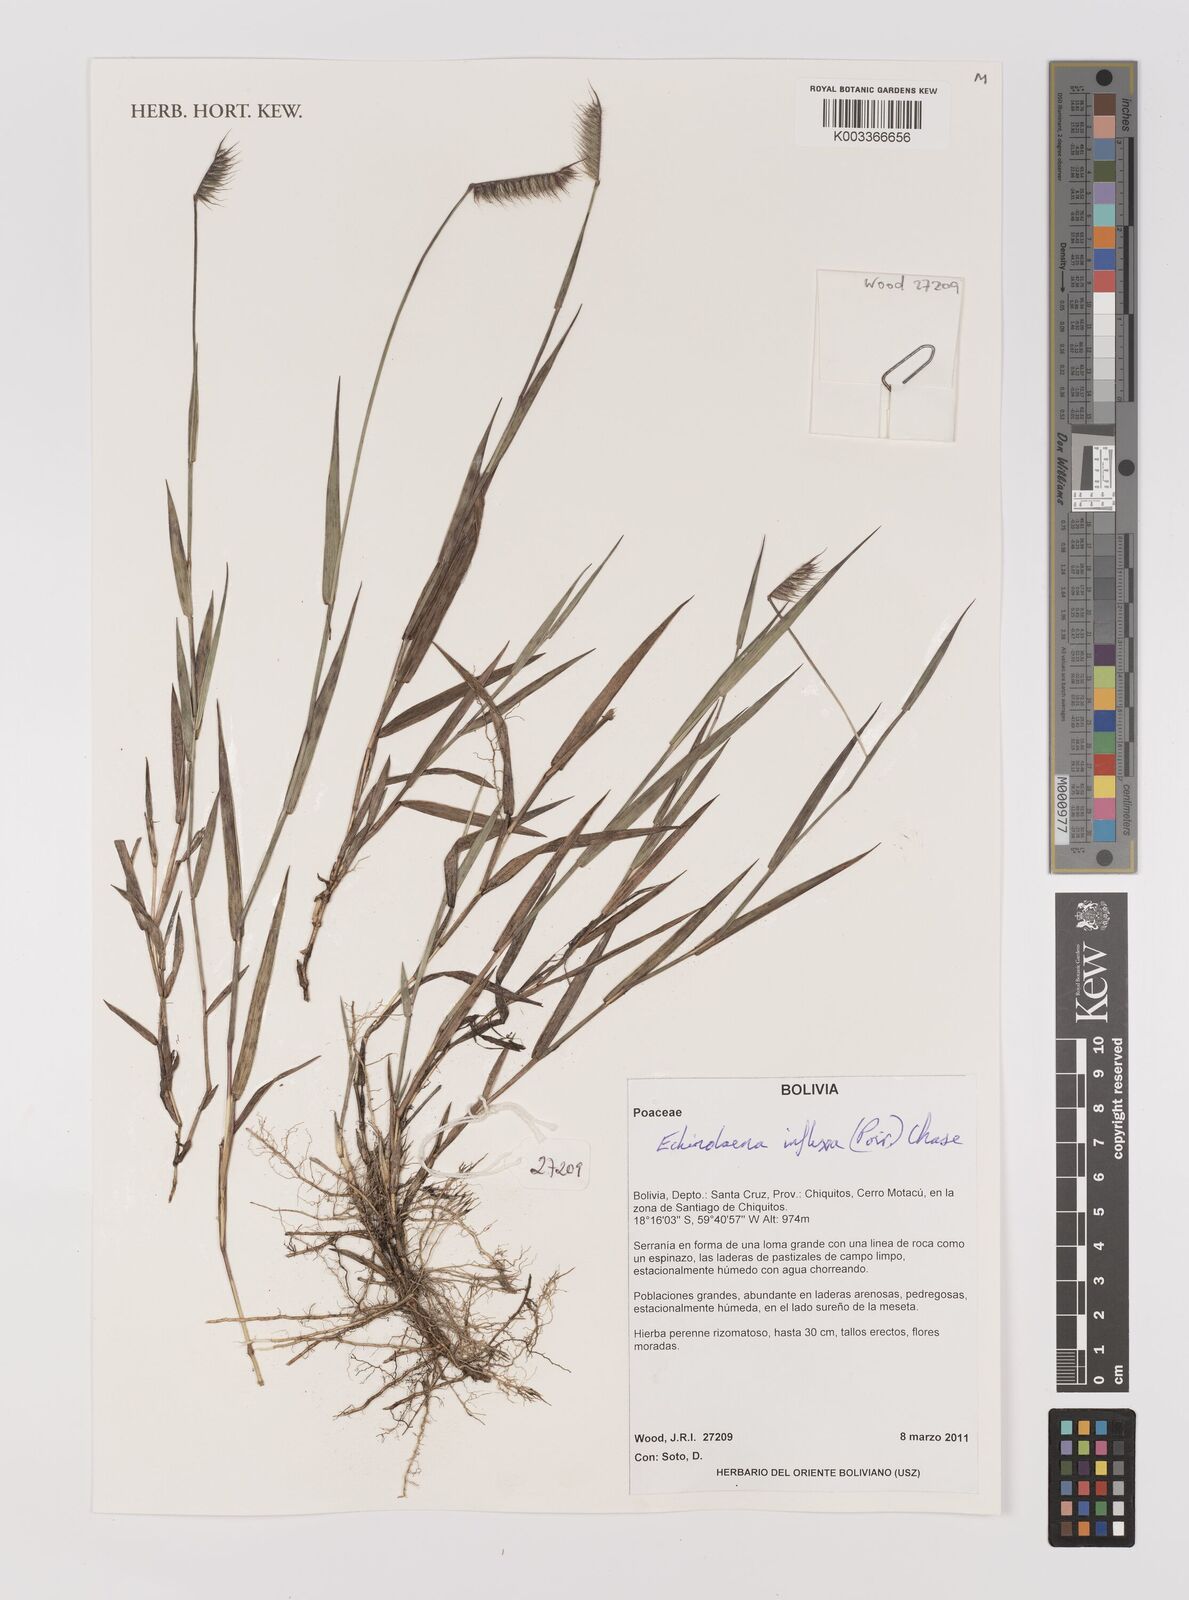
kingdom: Plantae
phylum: Tracheophyta
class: Liliopsida
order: Poales
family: Poaceae
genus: Echinolaena
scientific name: Echinolaena inflexa
